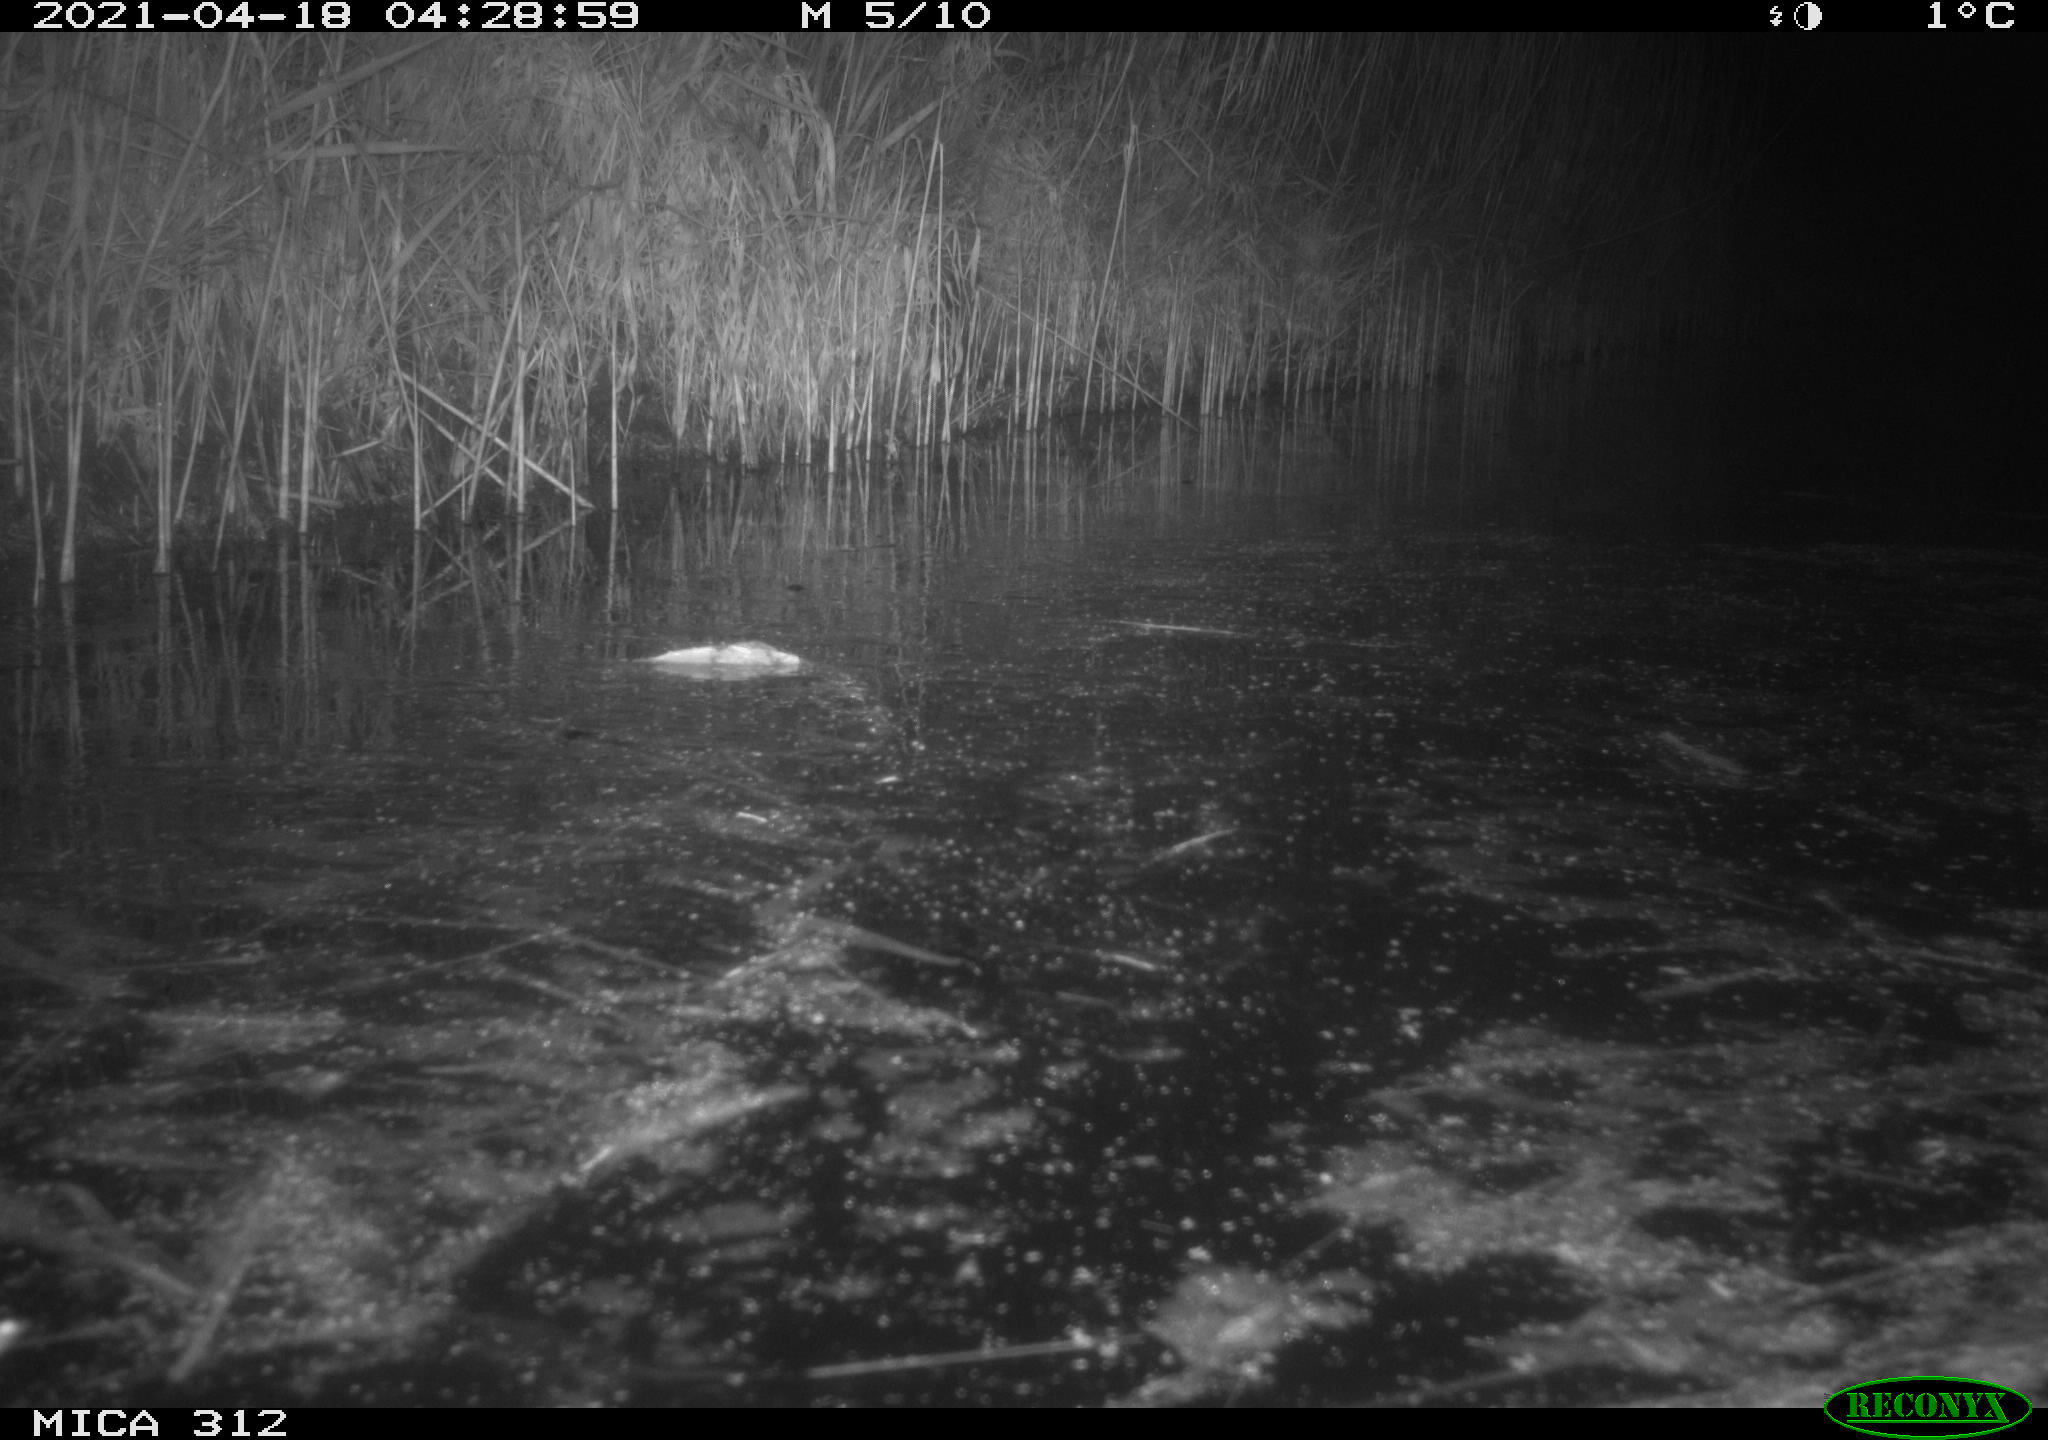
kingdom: Animalia
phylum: Chordata
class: Aves
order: Anseriformes
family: Anatidae
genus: Anas
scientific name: Anas platyrhynchos
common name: Mallard
